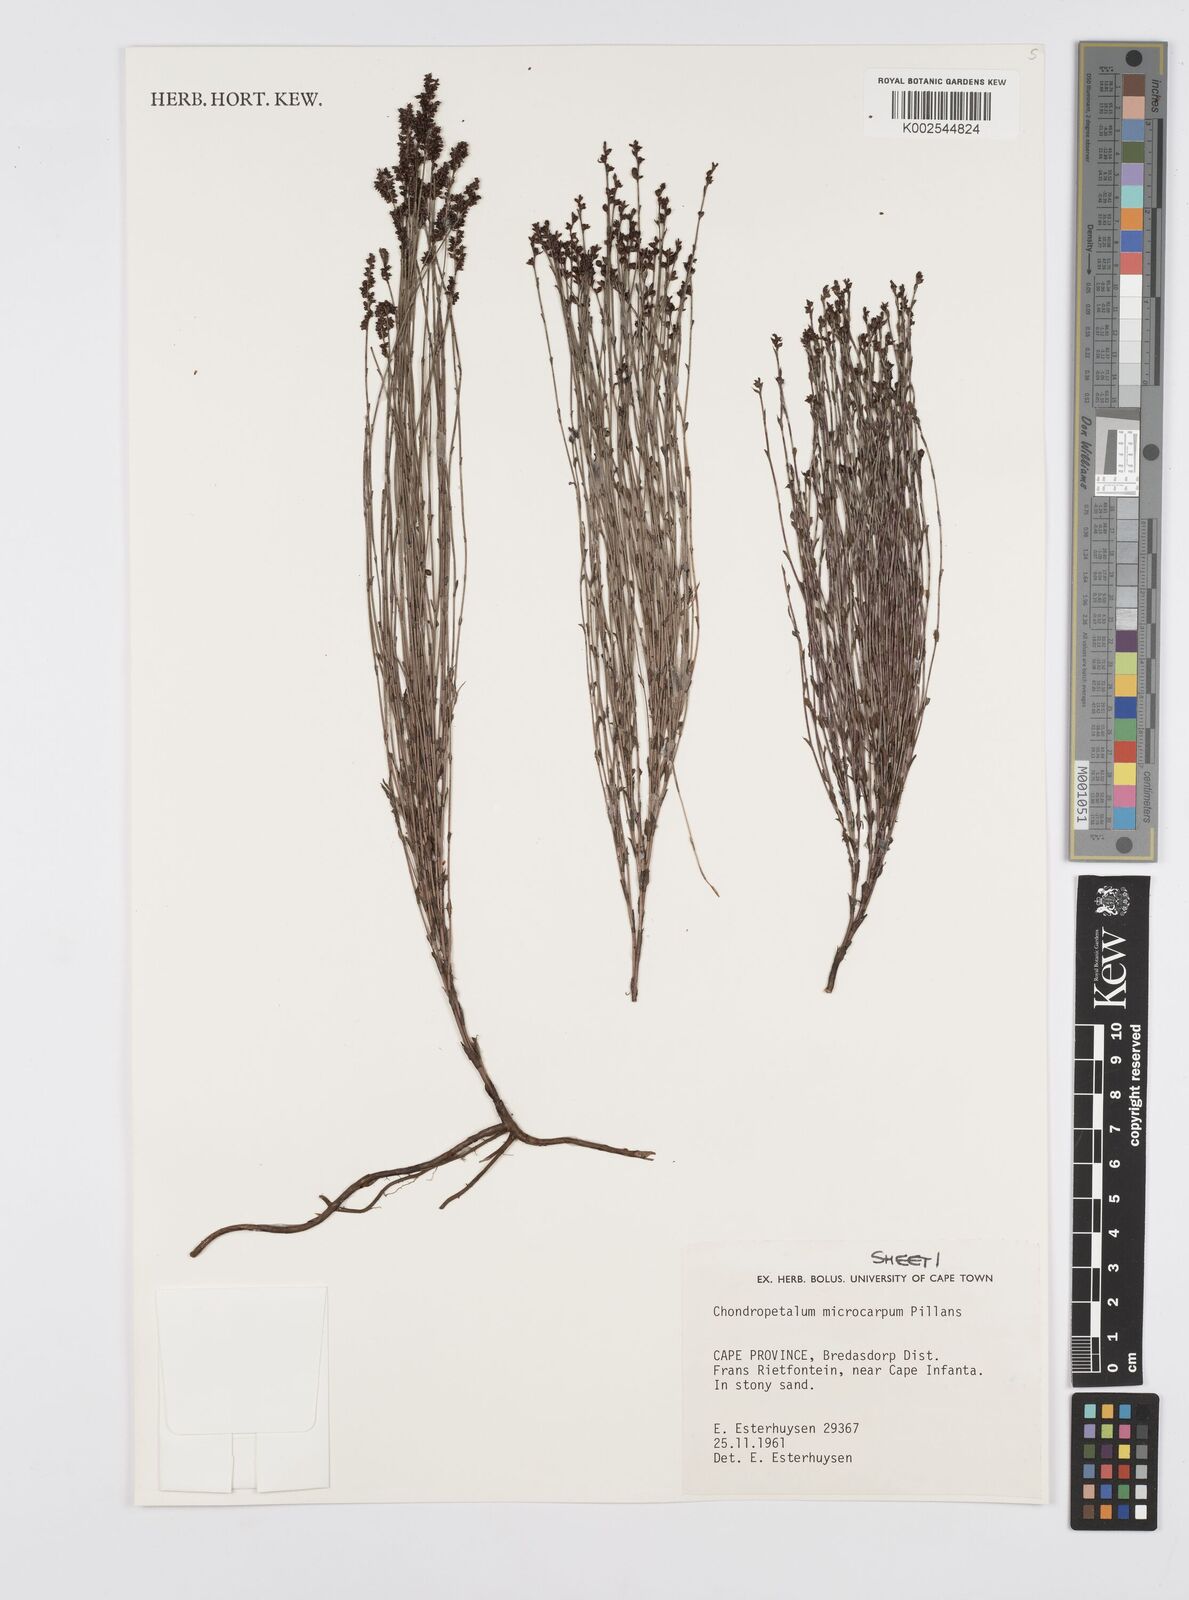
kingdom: Plantae
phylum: Tracheophyta
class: Liliopsida
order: Poales
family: Restionaceae
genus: Elegia
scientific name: Elegia microcarpa
